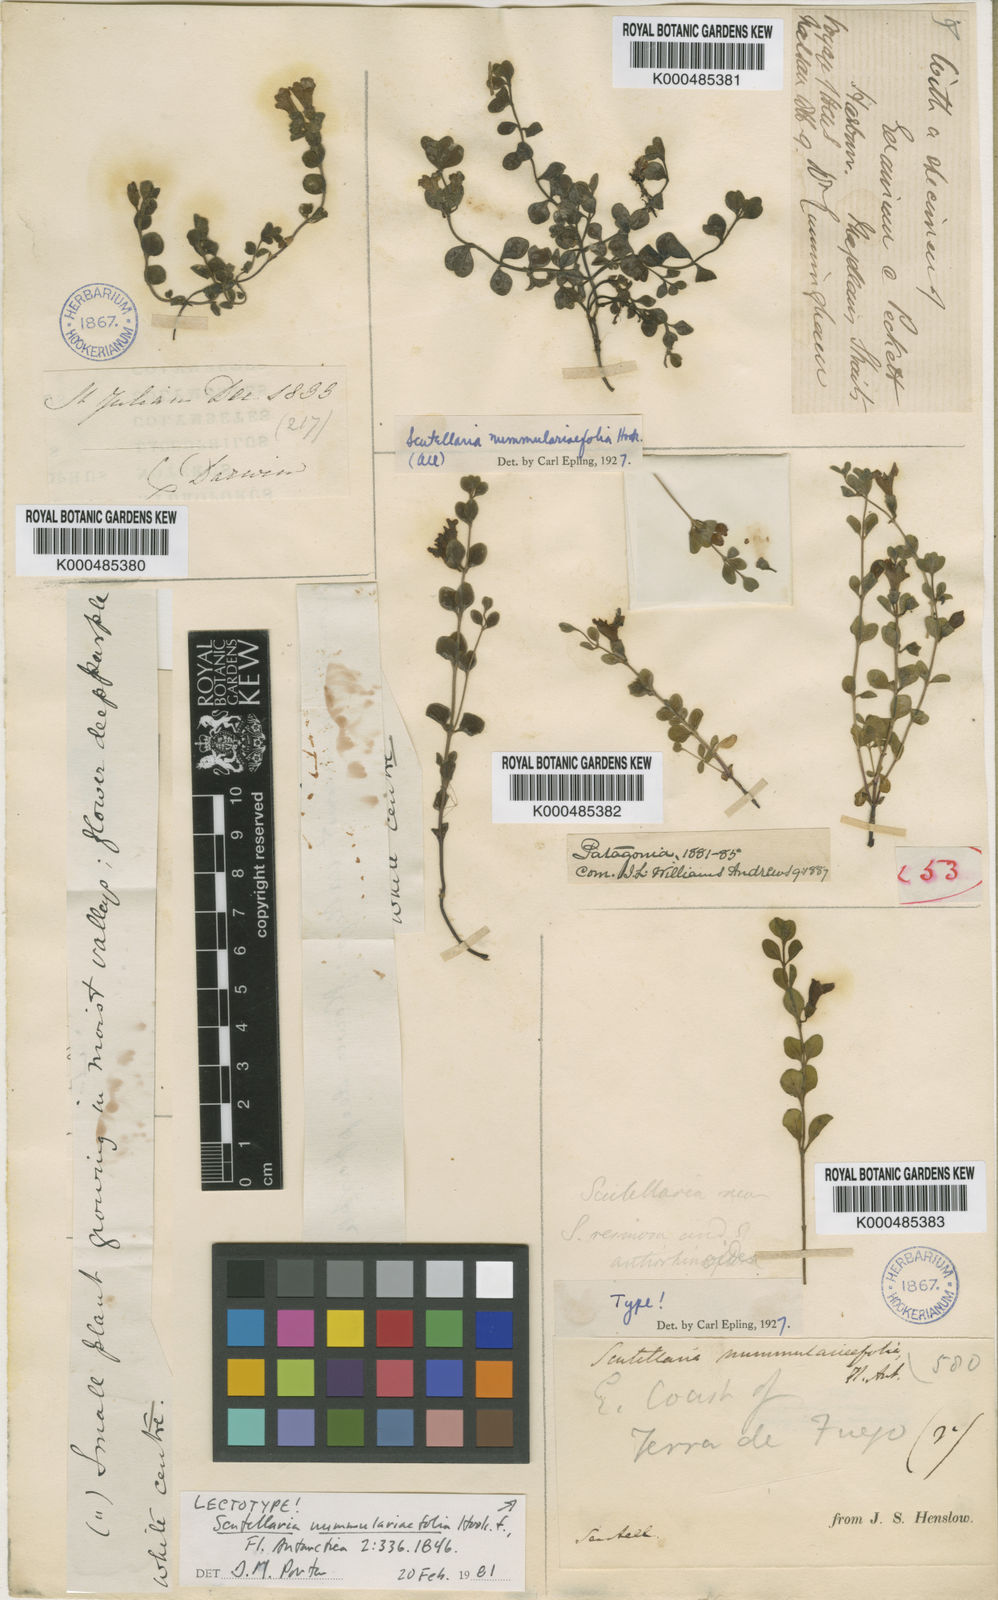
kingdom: Plantae
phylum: Tracheophyta
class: Magnoliopsida
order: Lamiales
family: Lamiaceae
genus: Scutellaria
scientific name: Scutellaria nummulariifolia
